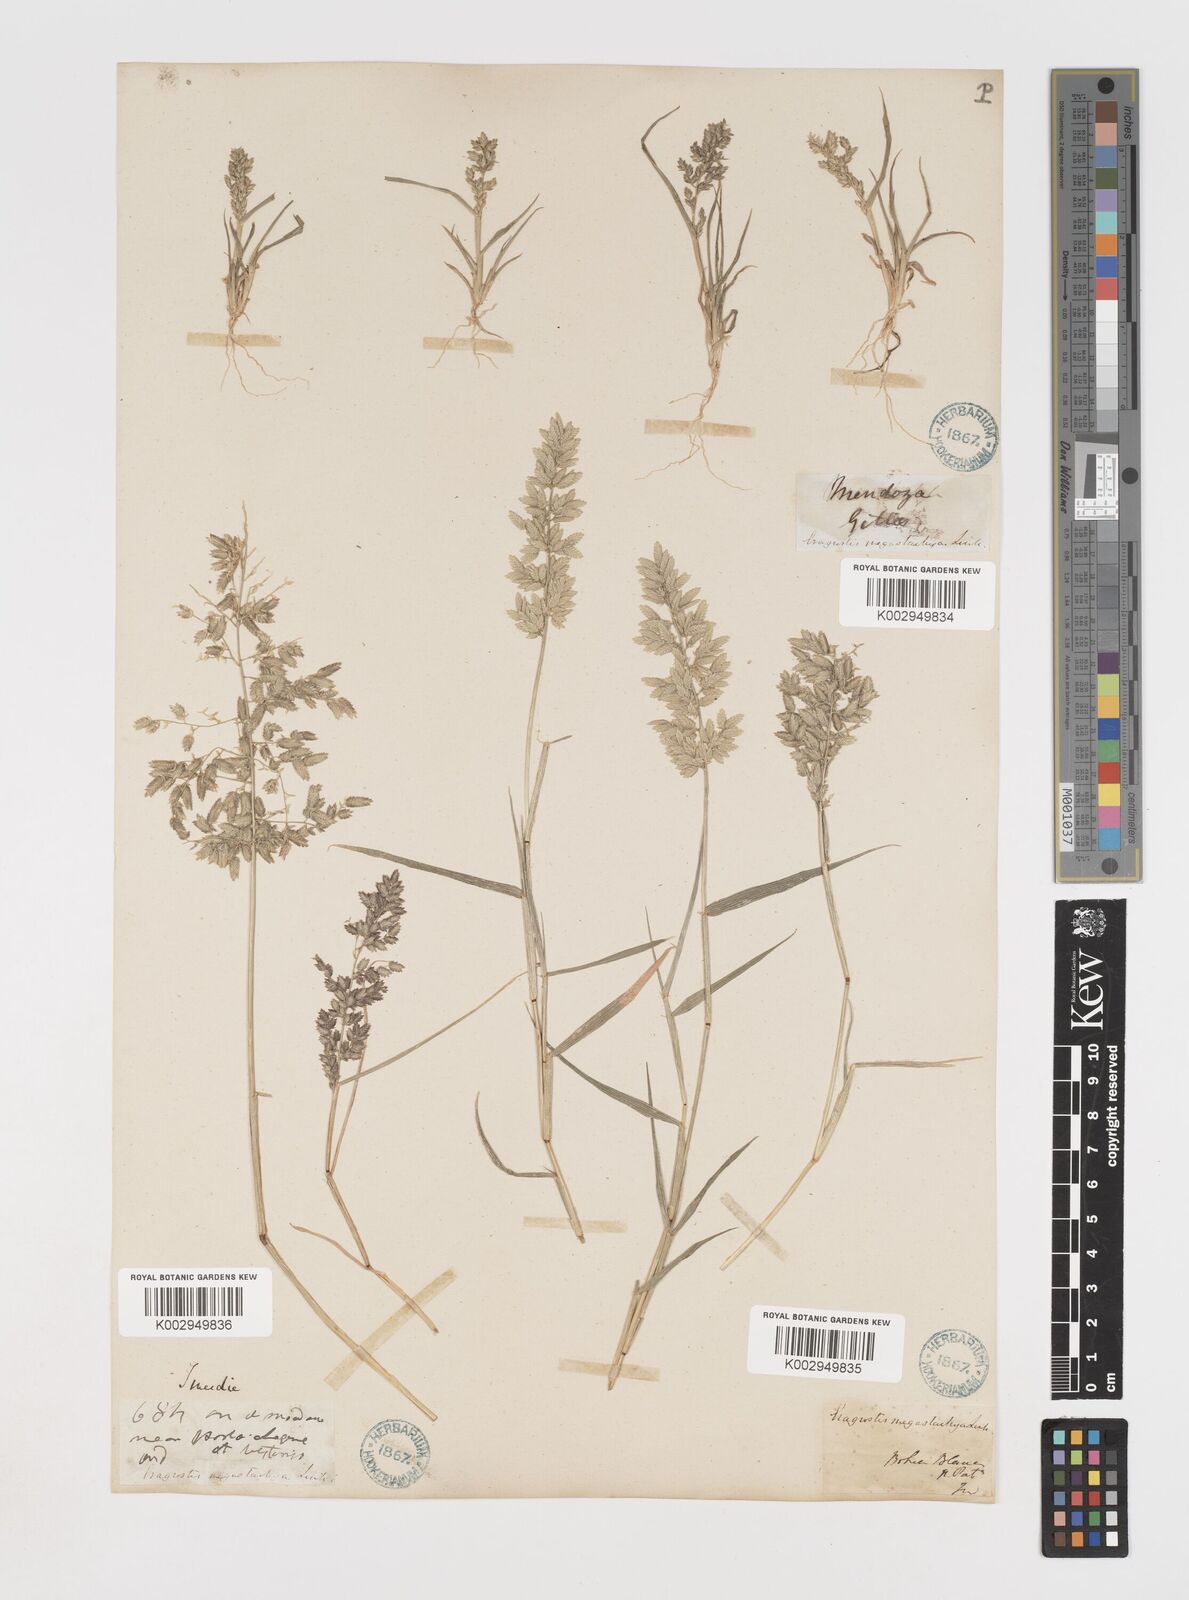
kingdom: Plantae
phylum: Tracheophyta
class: Liliopsida
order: Poales
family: Poaceae
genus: Eragrostis
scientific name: Eragrostis cilianensis
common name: Stinkgrass
